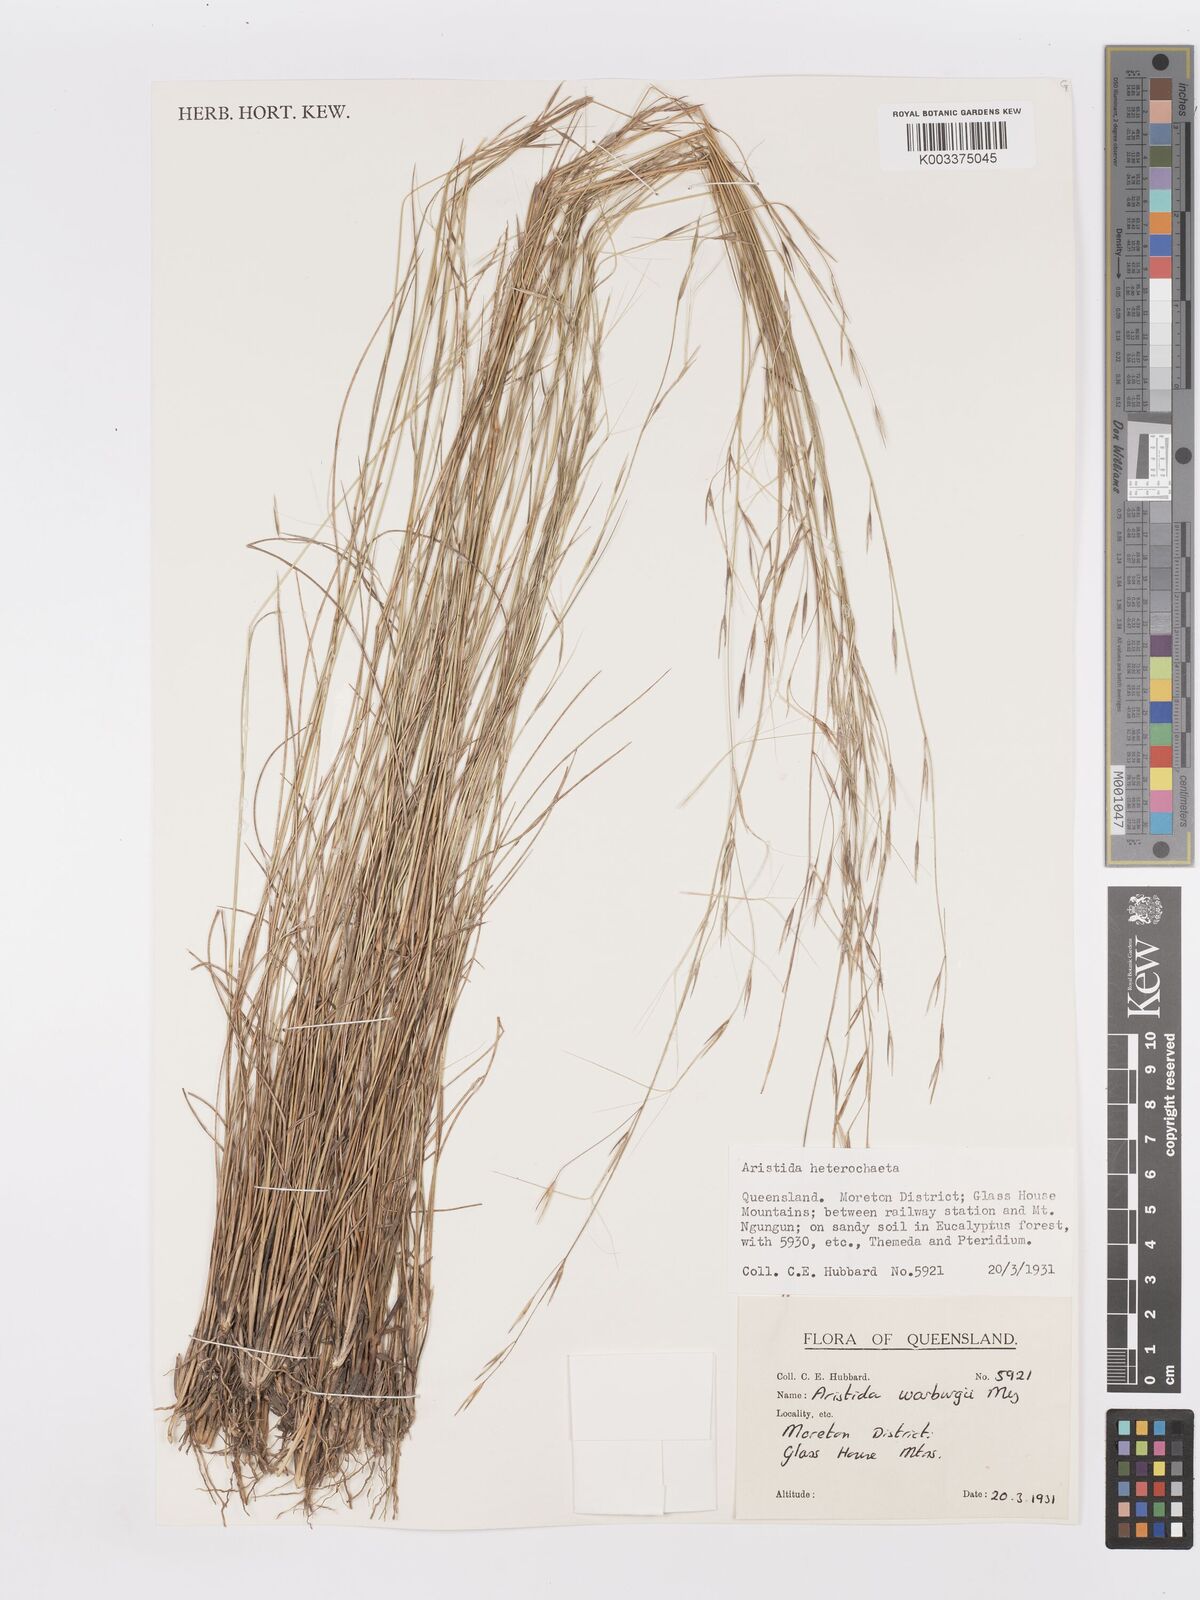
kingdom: Plantae
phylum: Tracheophyta
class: Liliopsida
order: Poales
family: Poaceae
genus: Aristida
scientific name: Aristida warburgii
